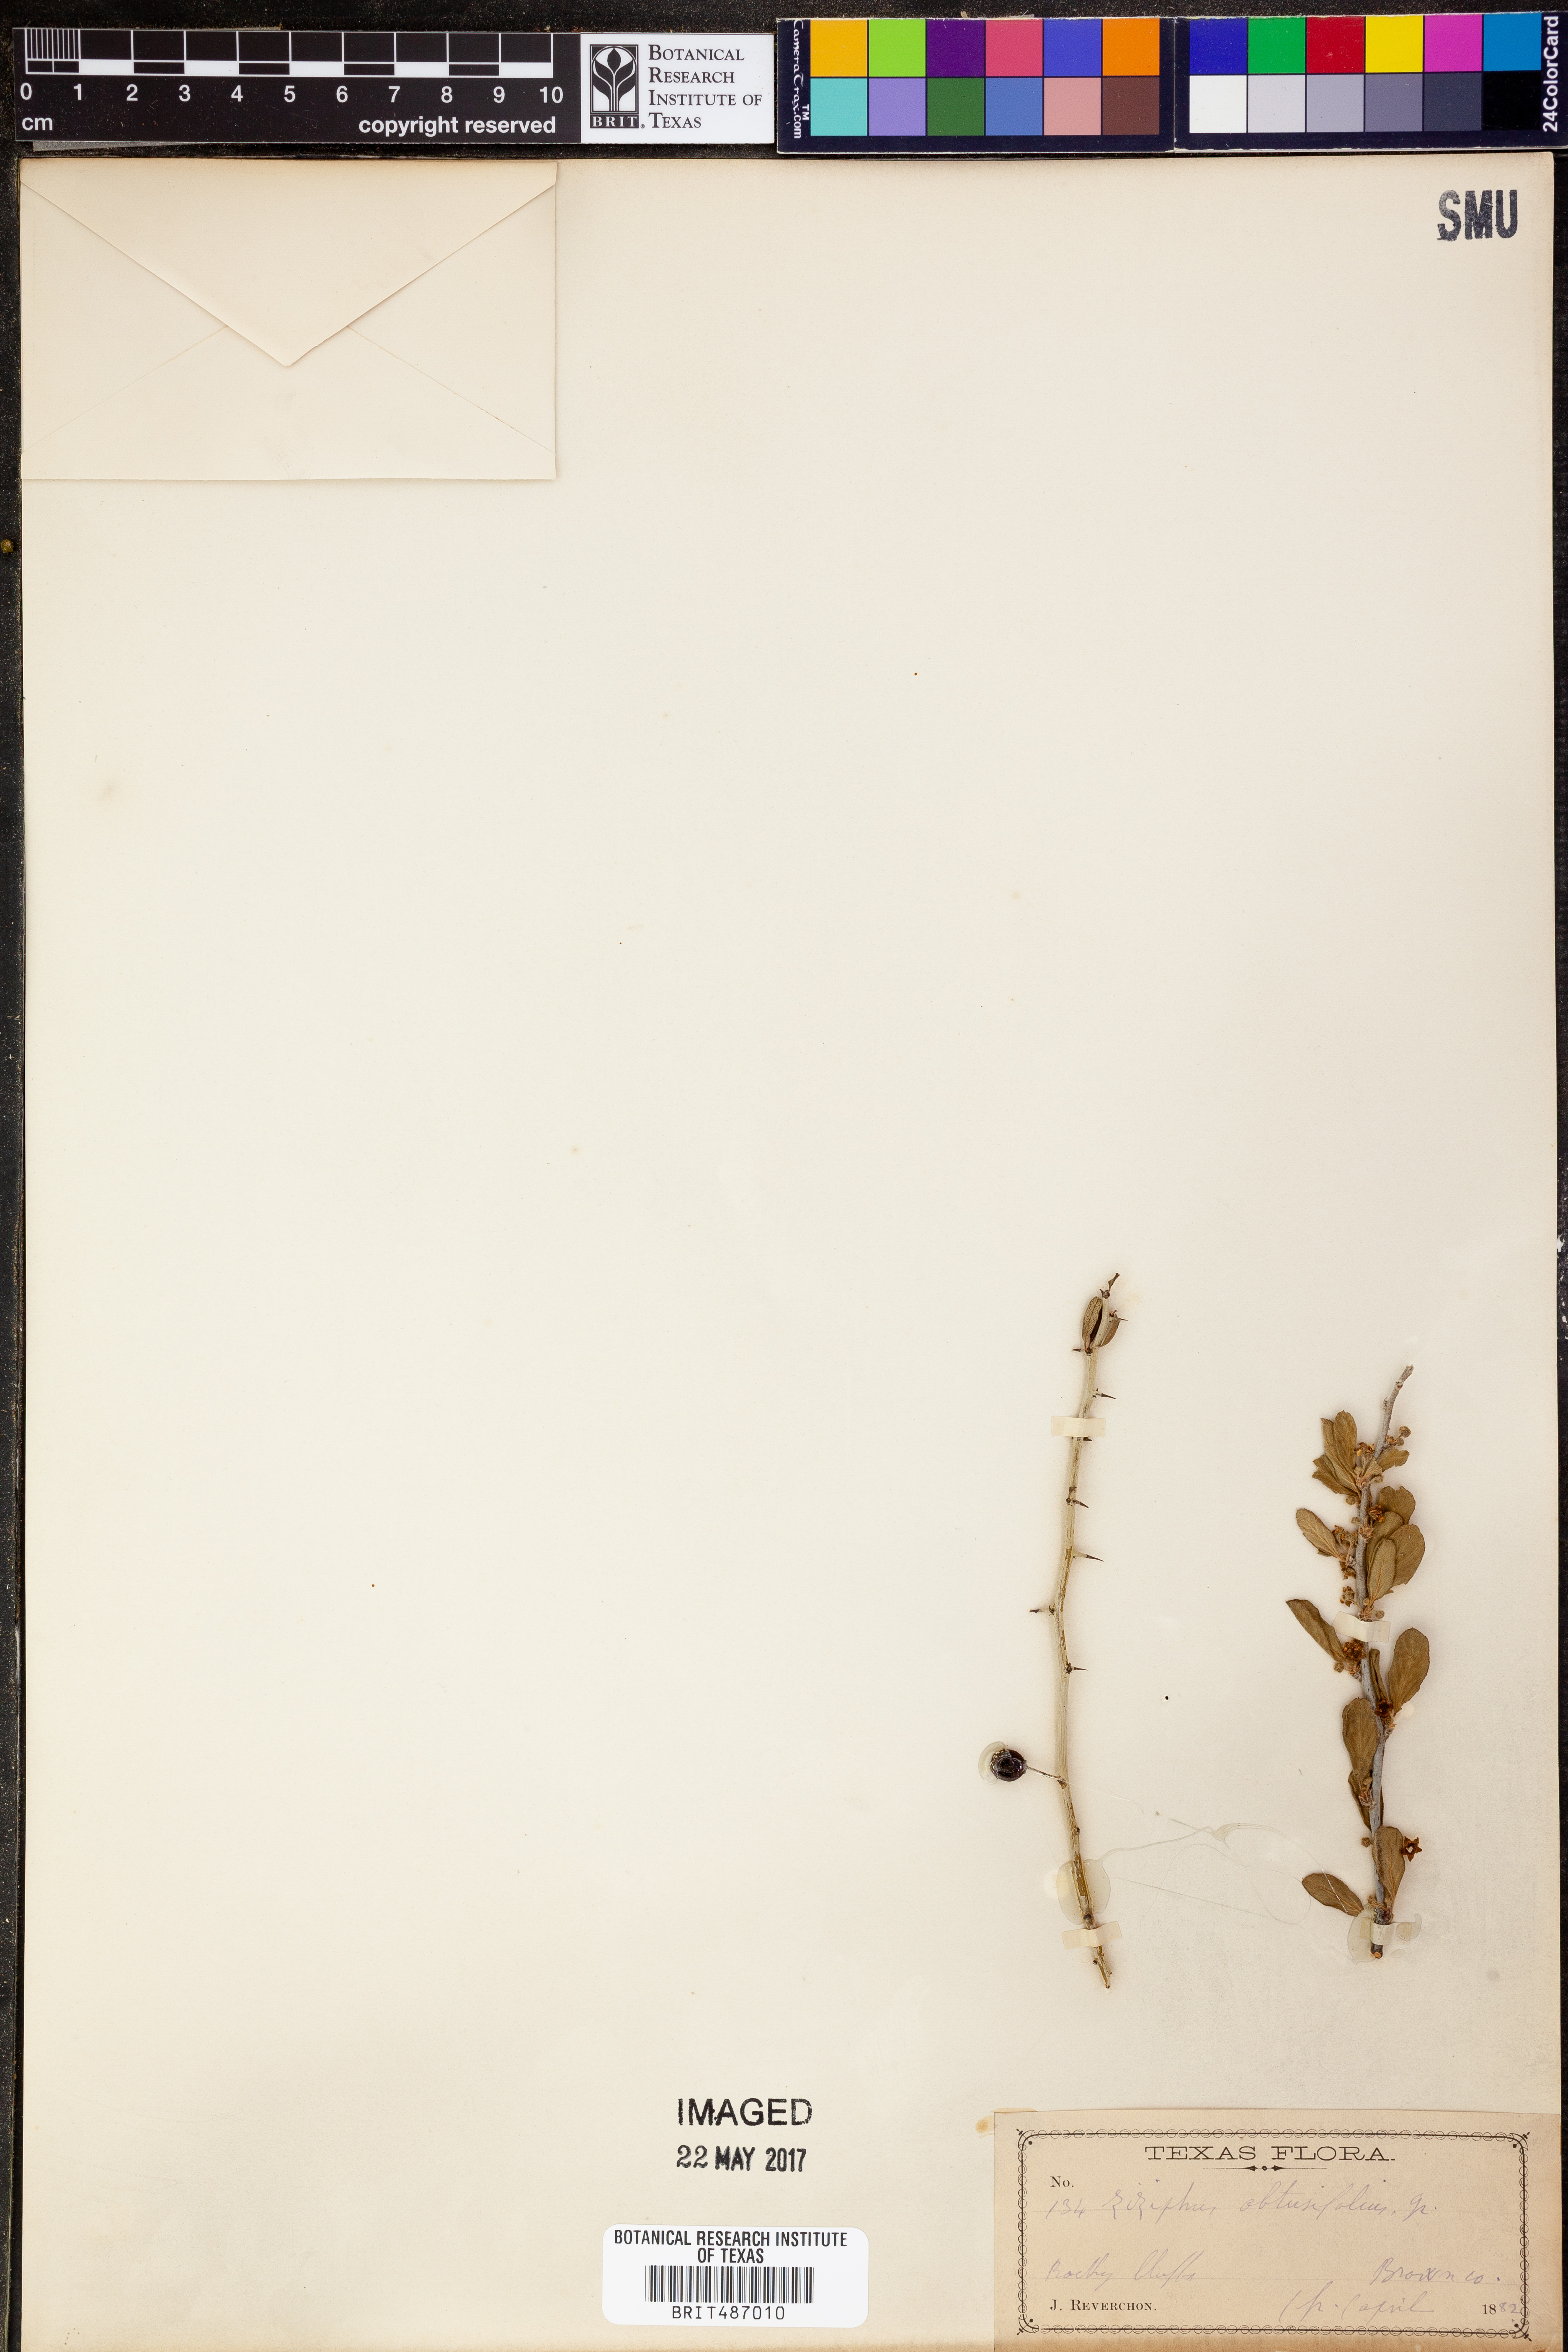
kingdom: Plantae
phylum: Tracheophyta
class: Magnoliopsida
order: Rosales
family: Rhamnaceae
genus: Sarcomphalus
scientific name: Sarcomphalus obtusifolius
